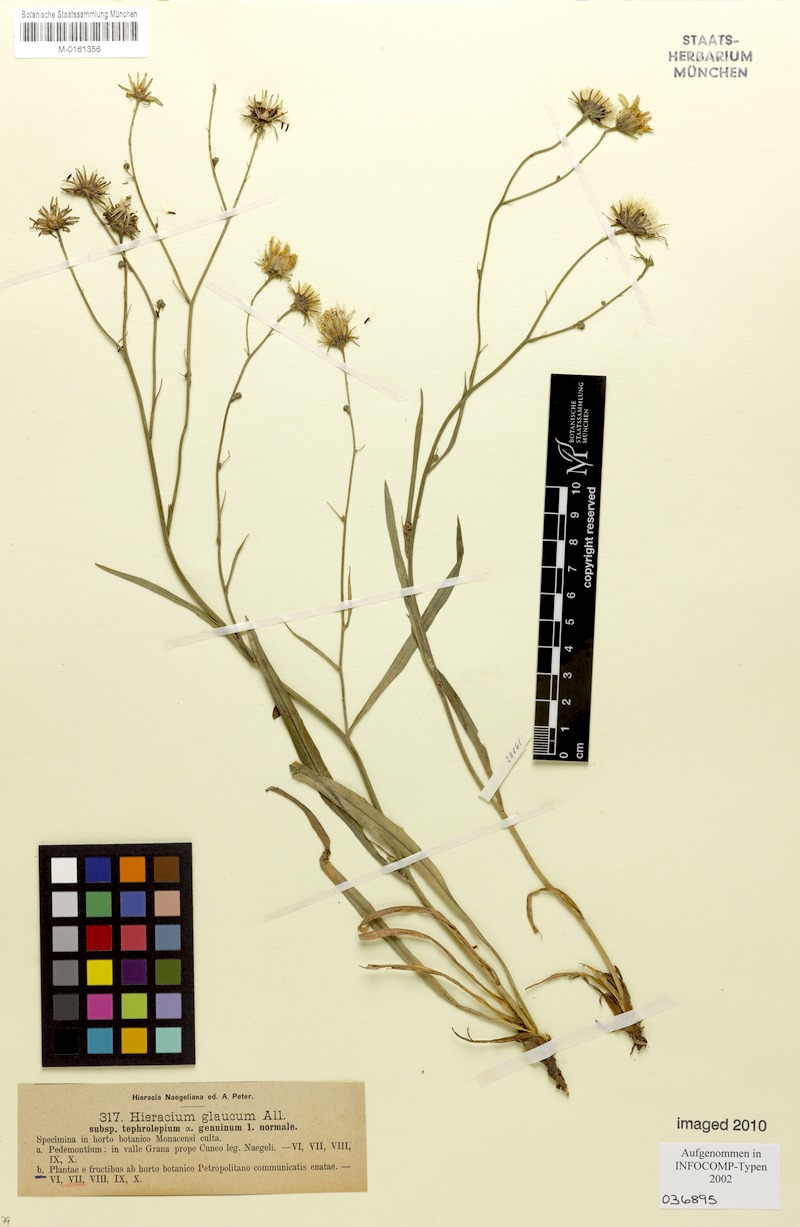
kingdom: Plantae
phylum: Tracheophyta
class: Magnoliopsida
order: Asterales
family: Asteraceae
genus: Hieracium
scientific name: Hieracium glaucum
